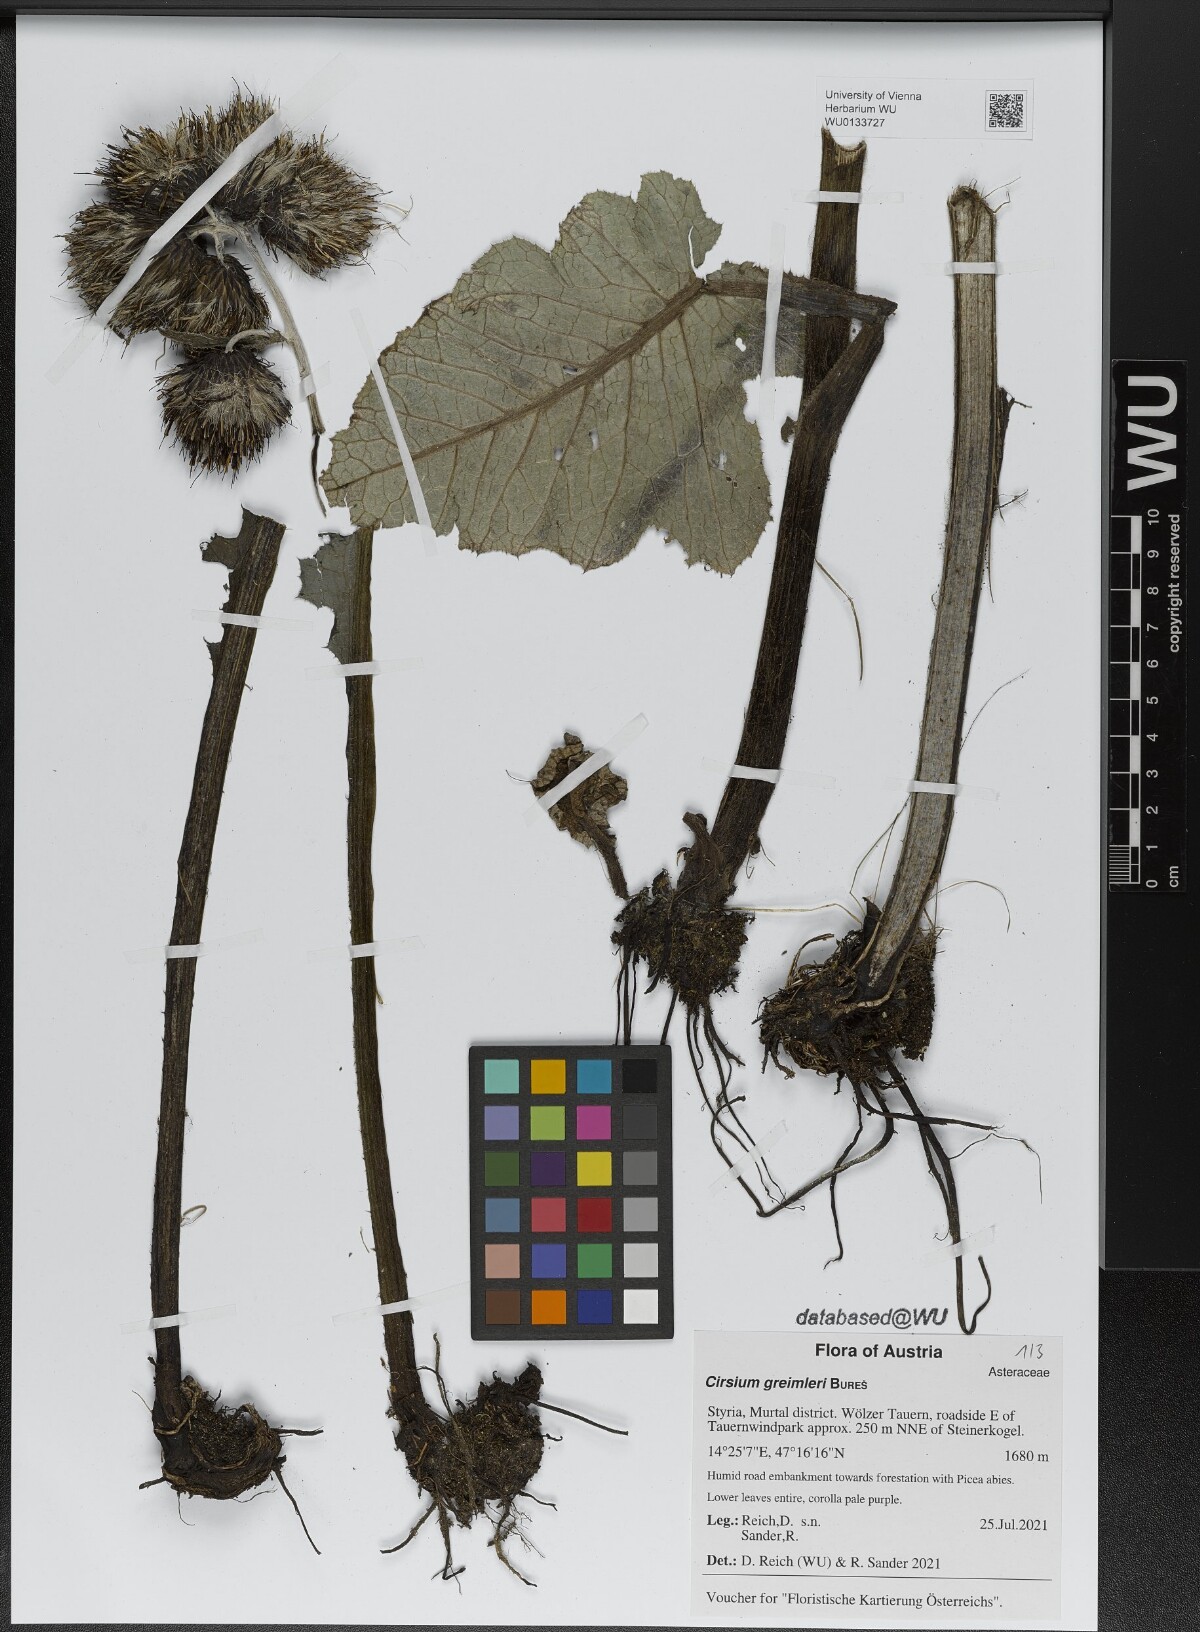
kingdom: Plantae
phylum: Tracheophyta
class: Magnoliopsida
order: Asterales
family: Asteraceae
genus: Cirsium
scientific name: Cirsium greimleri
